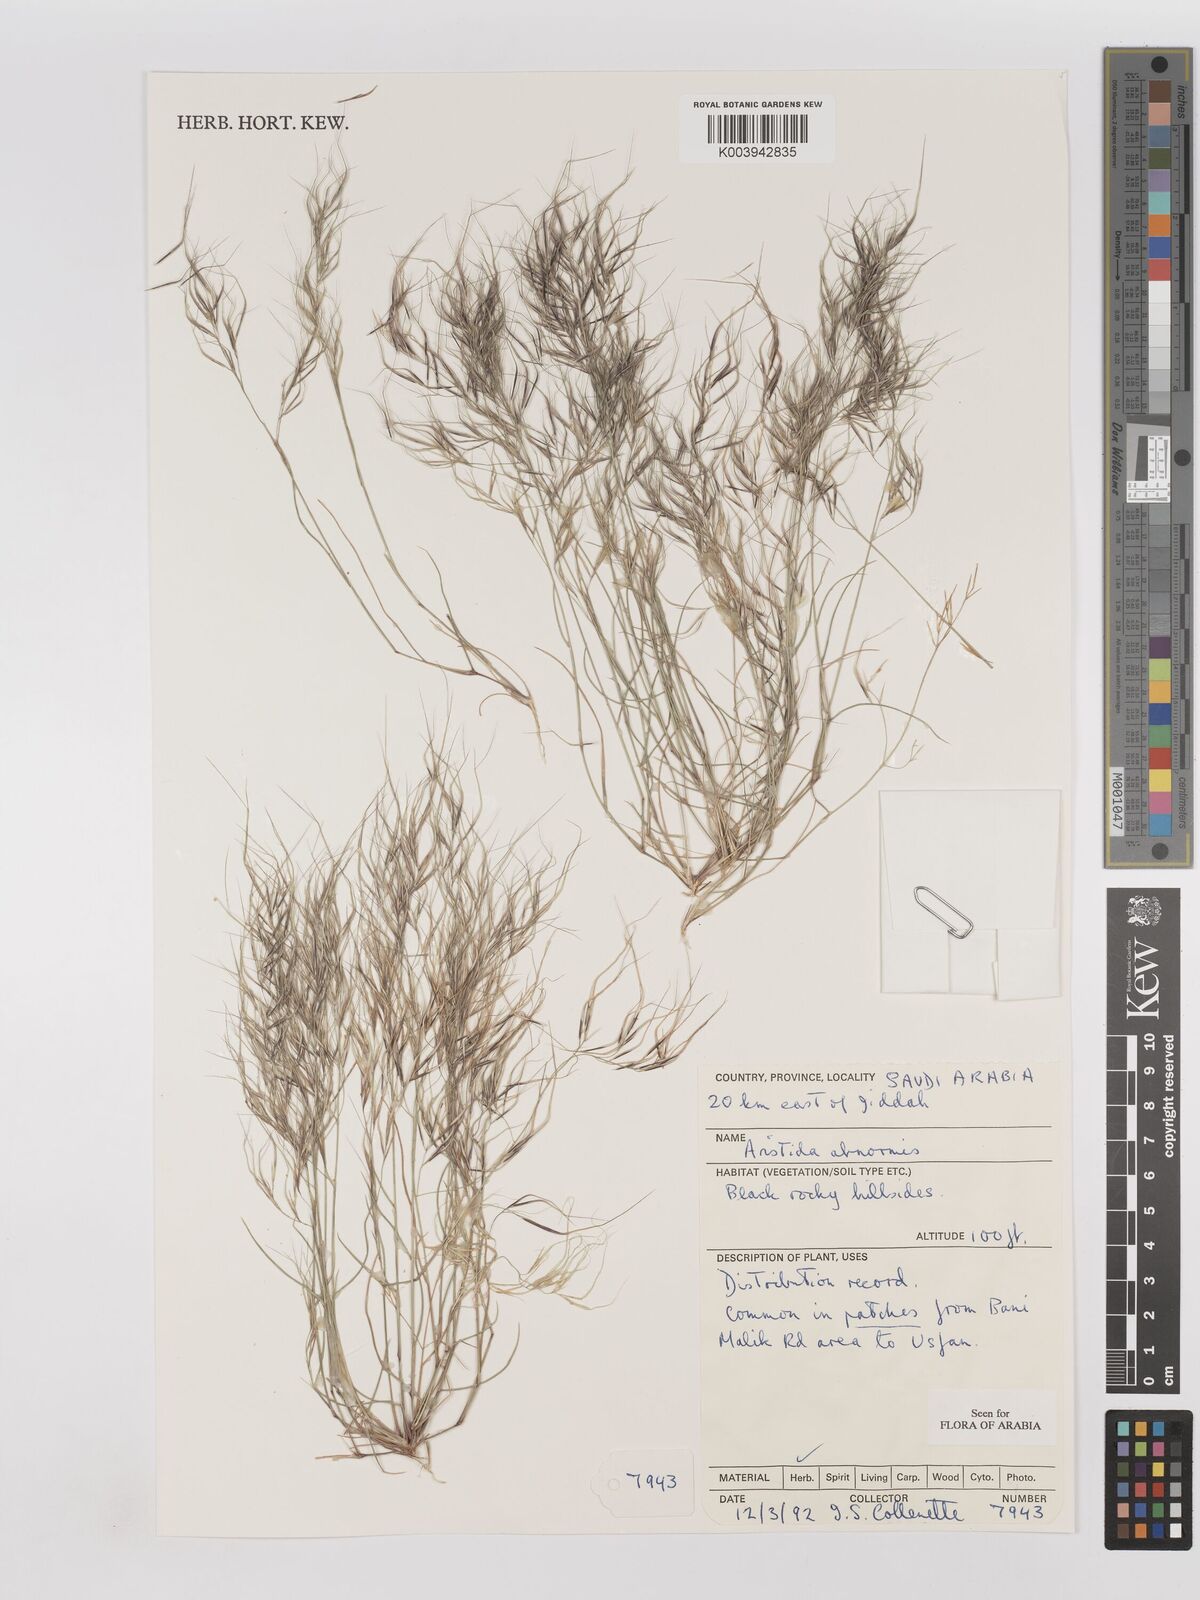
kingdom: Plantae
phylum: Tracheophyta
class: Liliopsida
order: Poales
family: Poaceae
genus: Aristida
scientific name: Aristida abnormis
